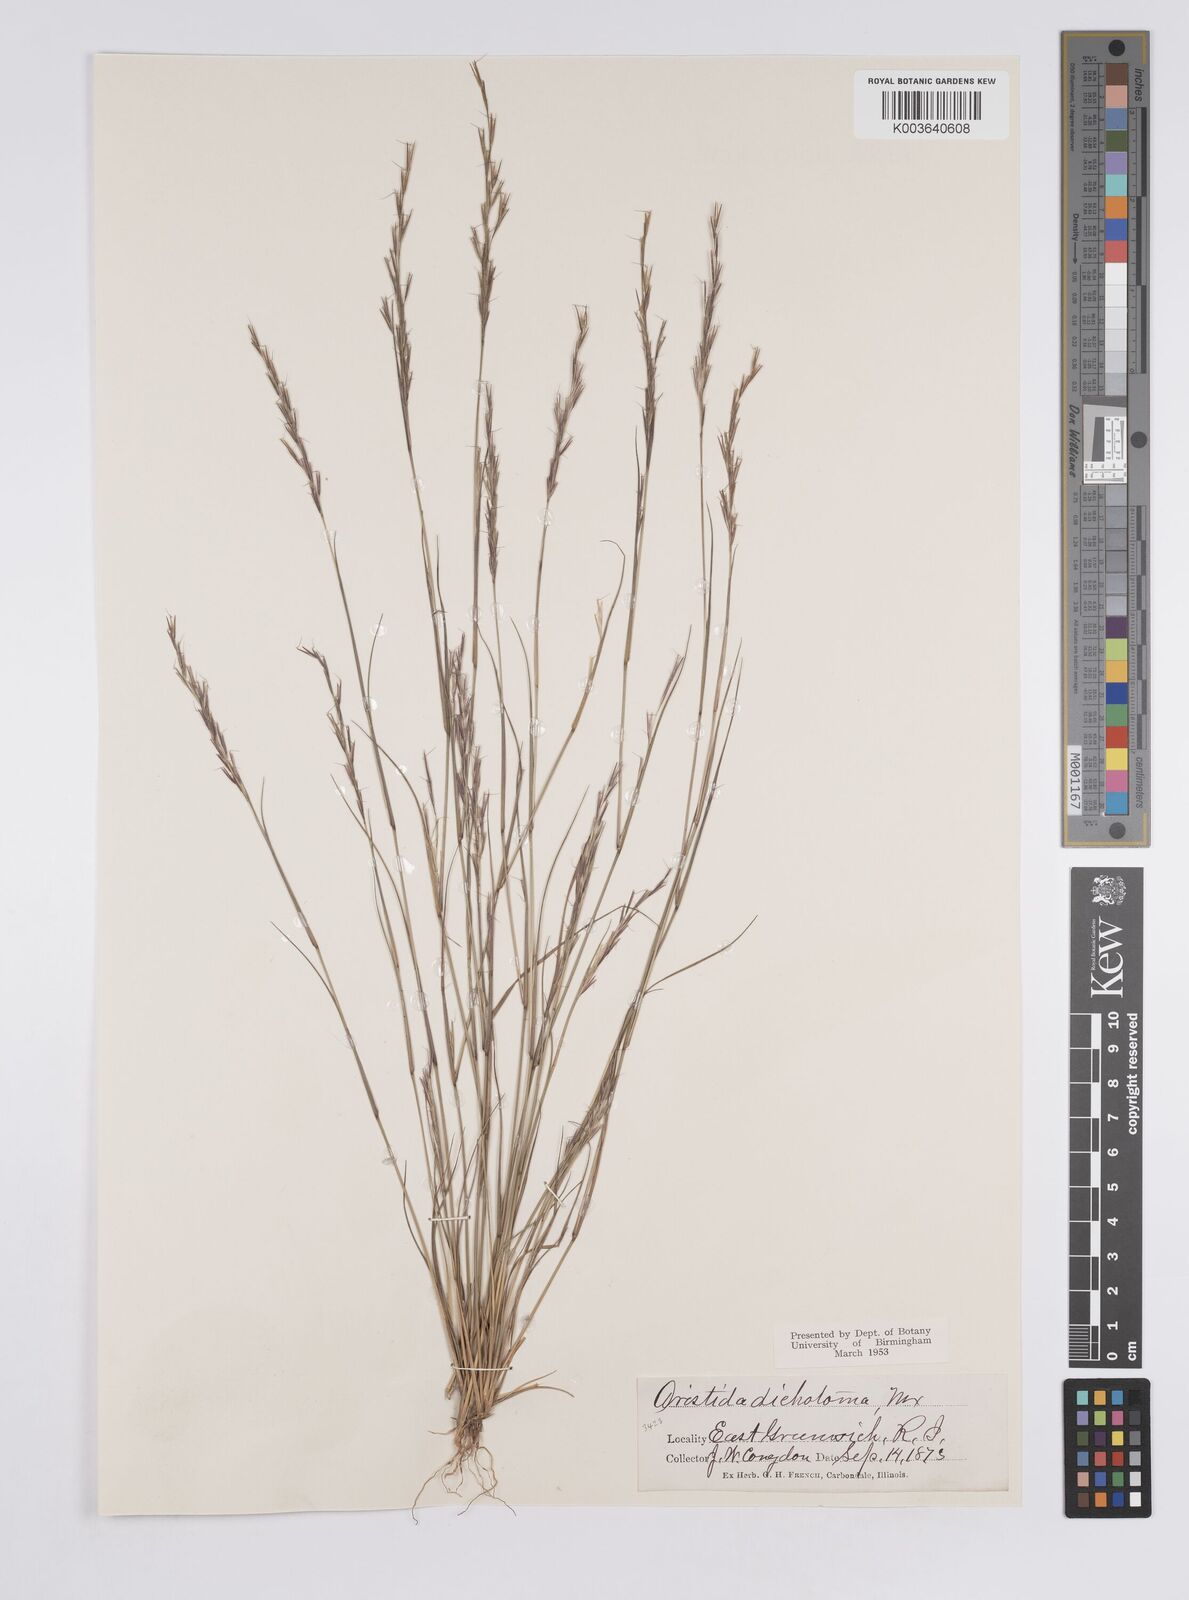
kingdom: Plantae
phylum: Tracheophyta
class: Liliopsida
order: Poales
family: Poaceae
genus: Aristida
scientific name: Aristida dichotoma
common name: Churchmouse three-awn
